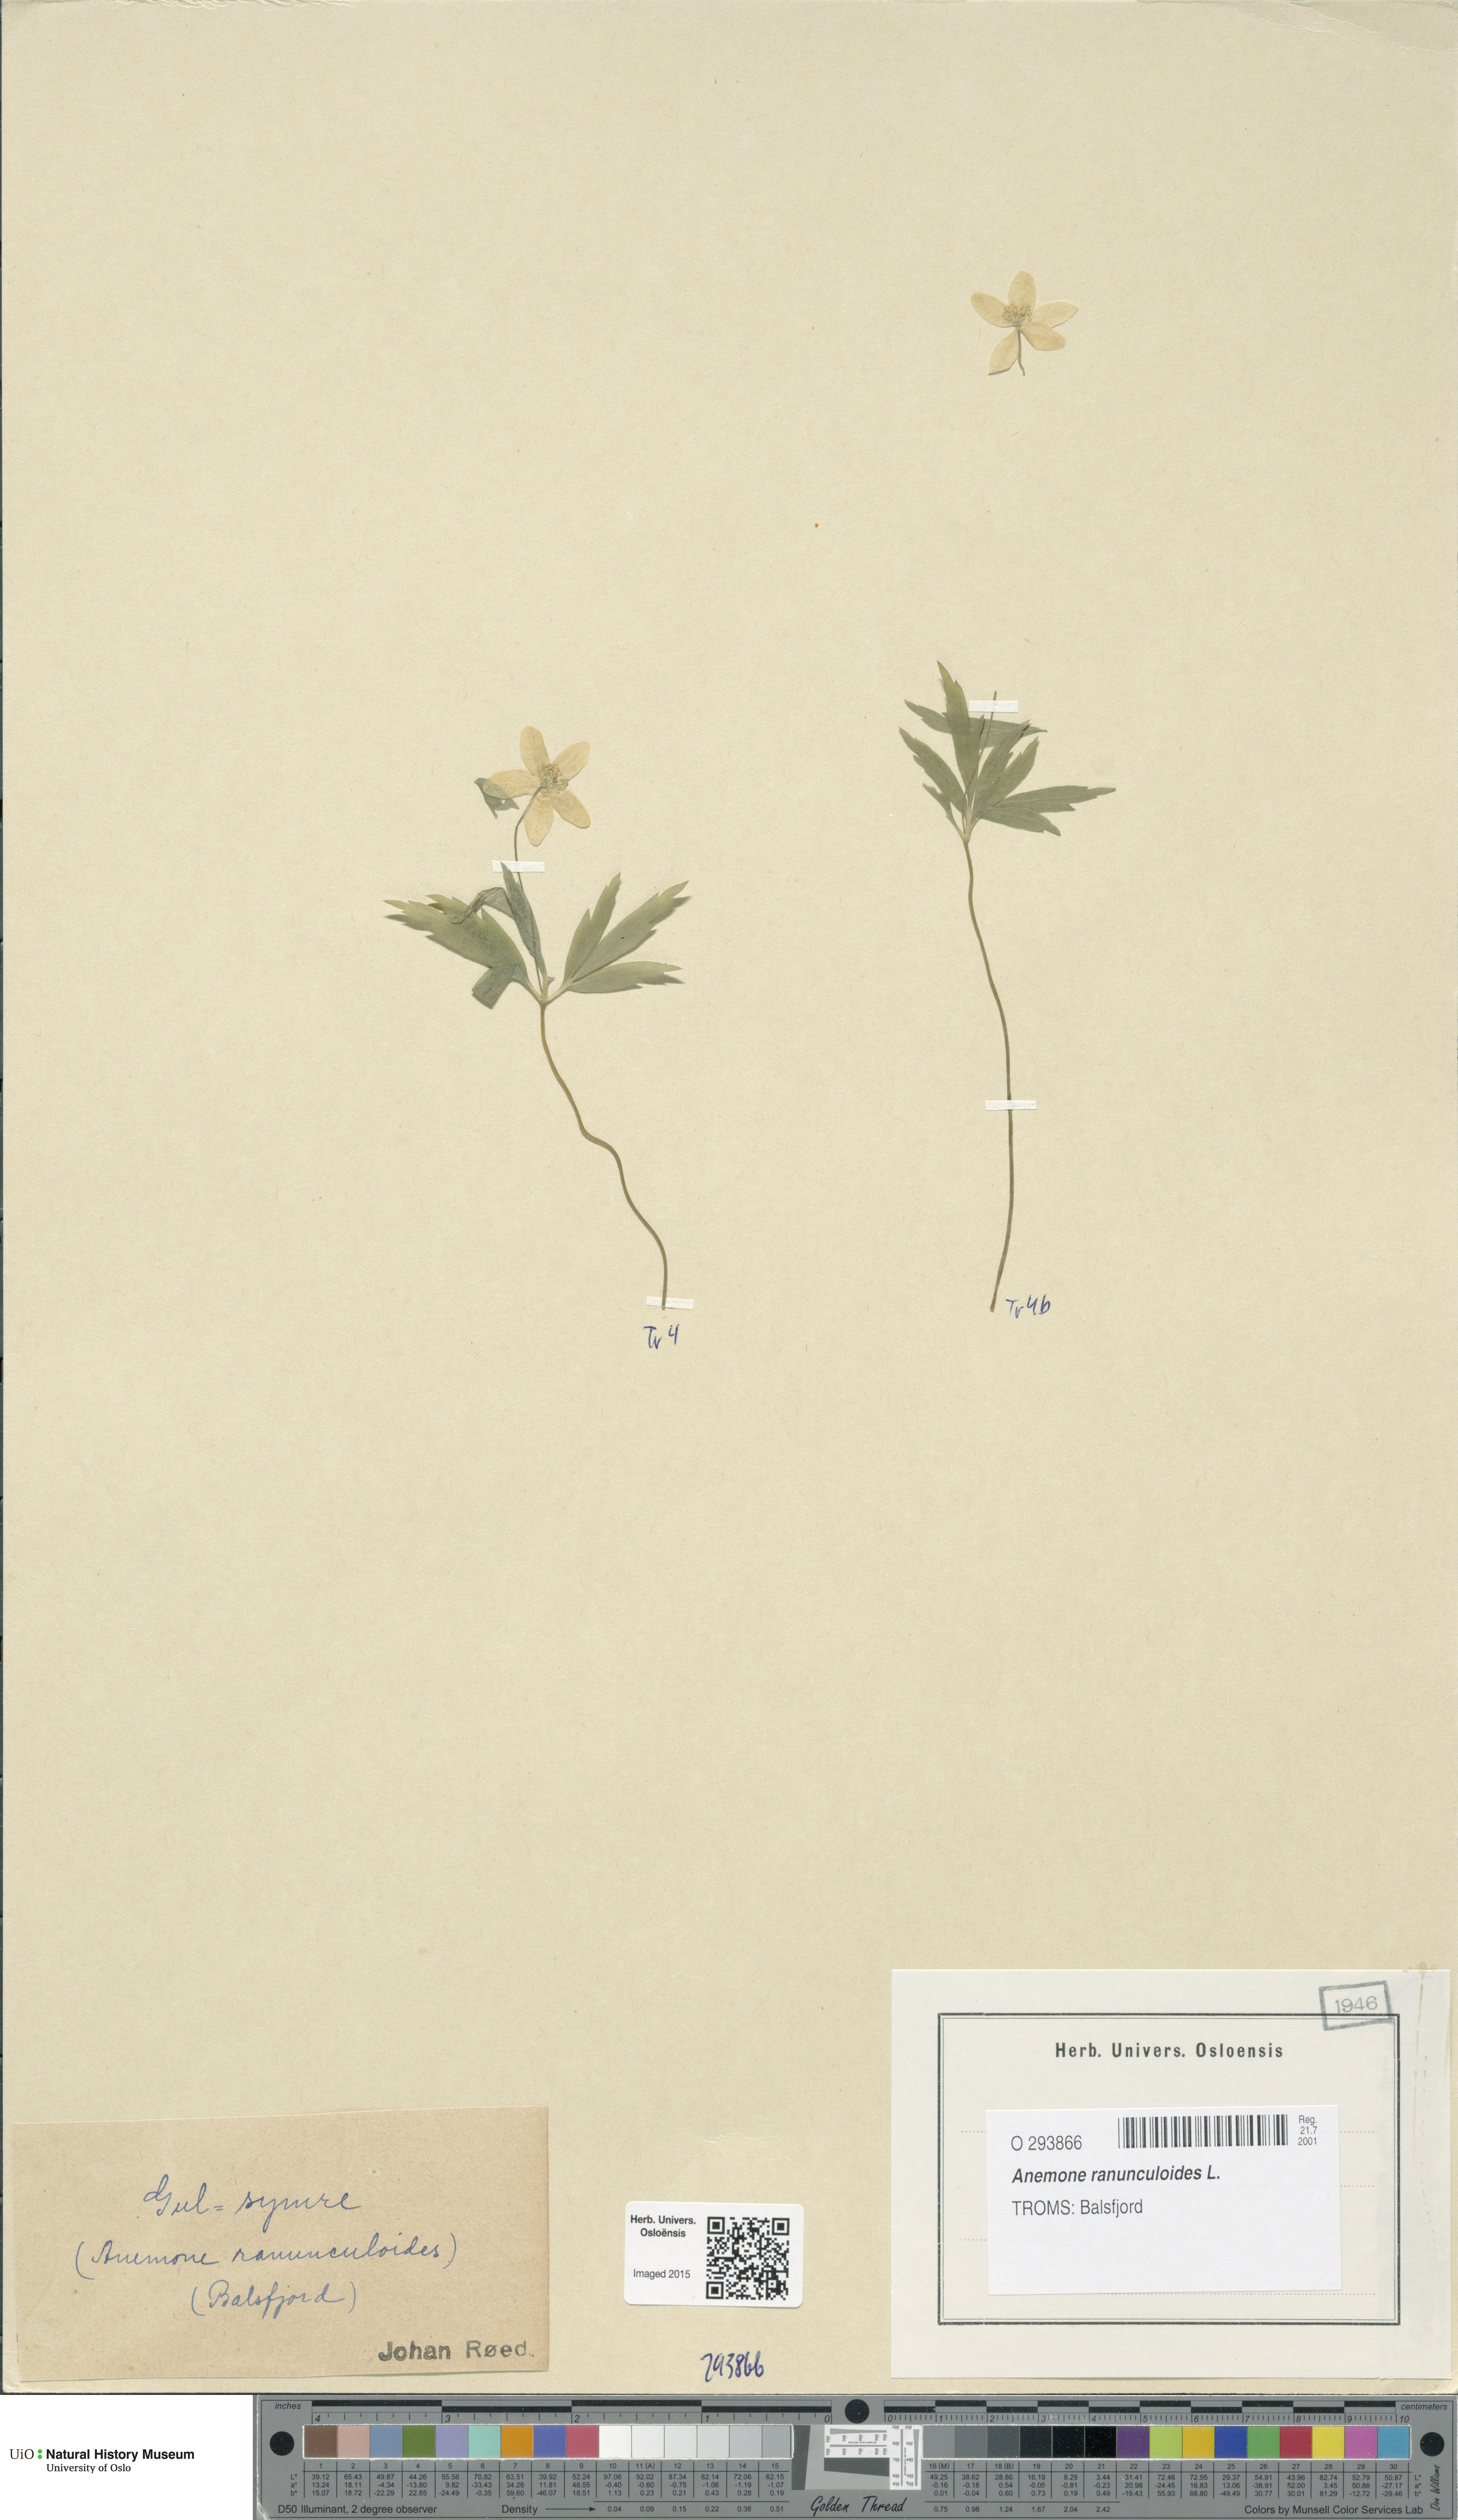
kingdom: Plantae
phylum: Tracheophyta
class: Magnoliopsida
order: Ranunculales
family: Ranunculaceae
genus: Anemone
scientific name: Anemone ranunculoides
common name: Yellow anemone
